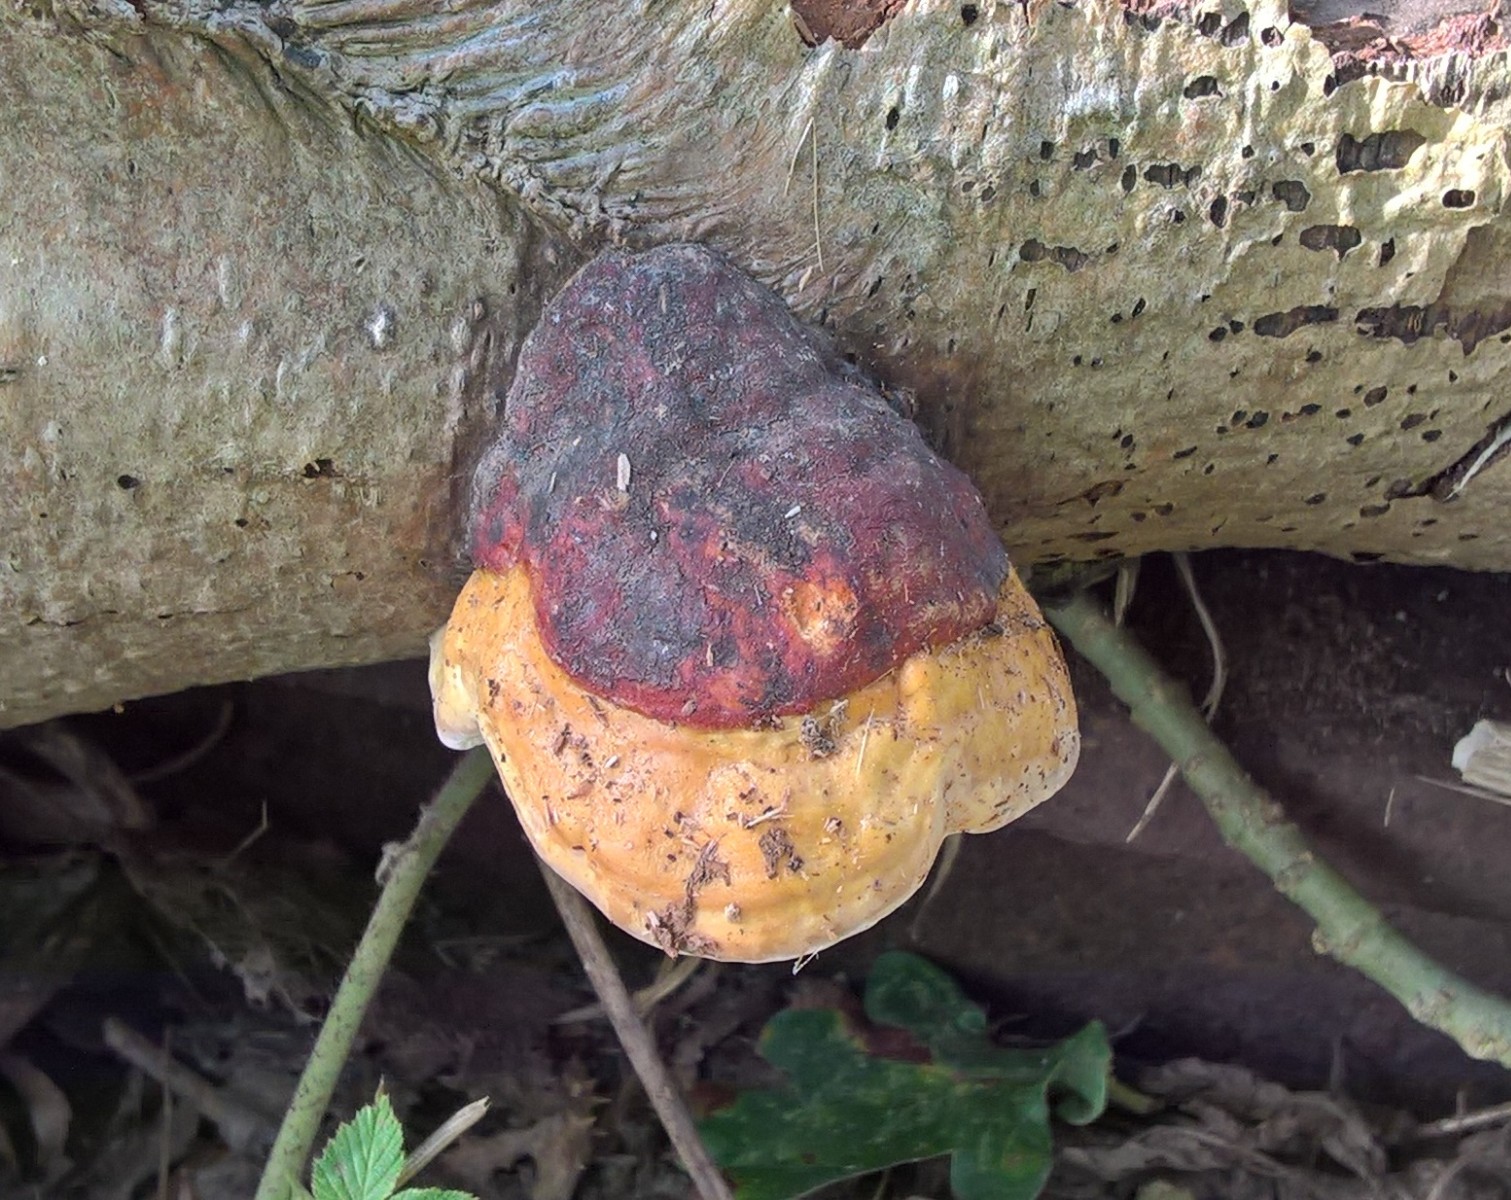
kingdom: Fungi
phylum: Basidiomycota
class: Agaricomycetes
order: Polyporales
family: Fomitopsidaceae
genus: Fomitopsis
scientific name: Fomitopsis pinicola
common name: randbæltet hovporesvamp
